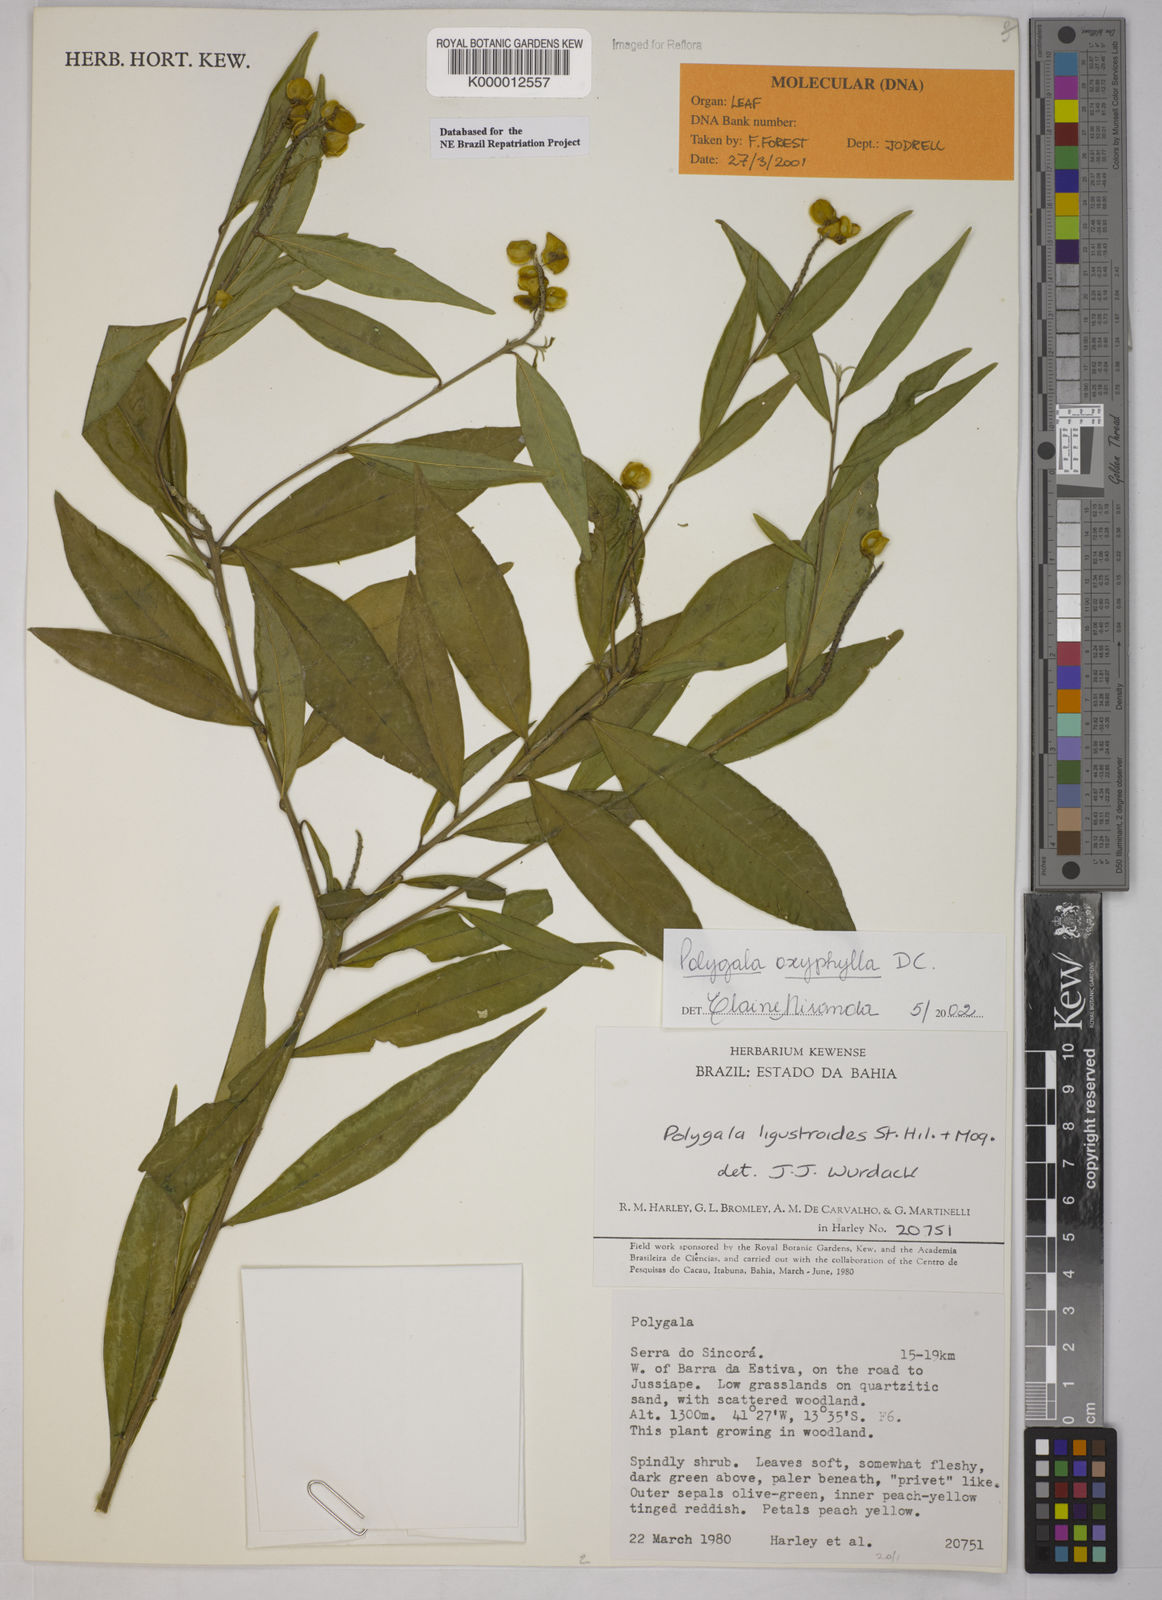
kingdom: Plantae
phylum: Tracheophyta
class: Magnoliopsida
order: Fabales
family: Polygalaceae
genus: Caamembeca
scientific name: Caamembeca oxyphylla
